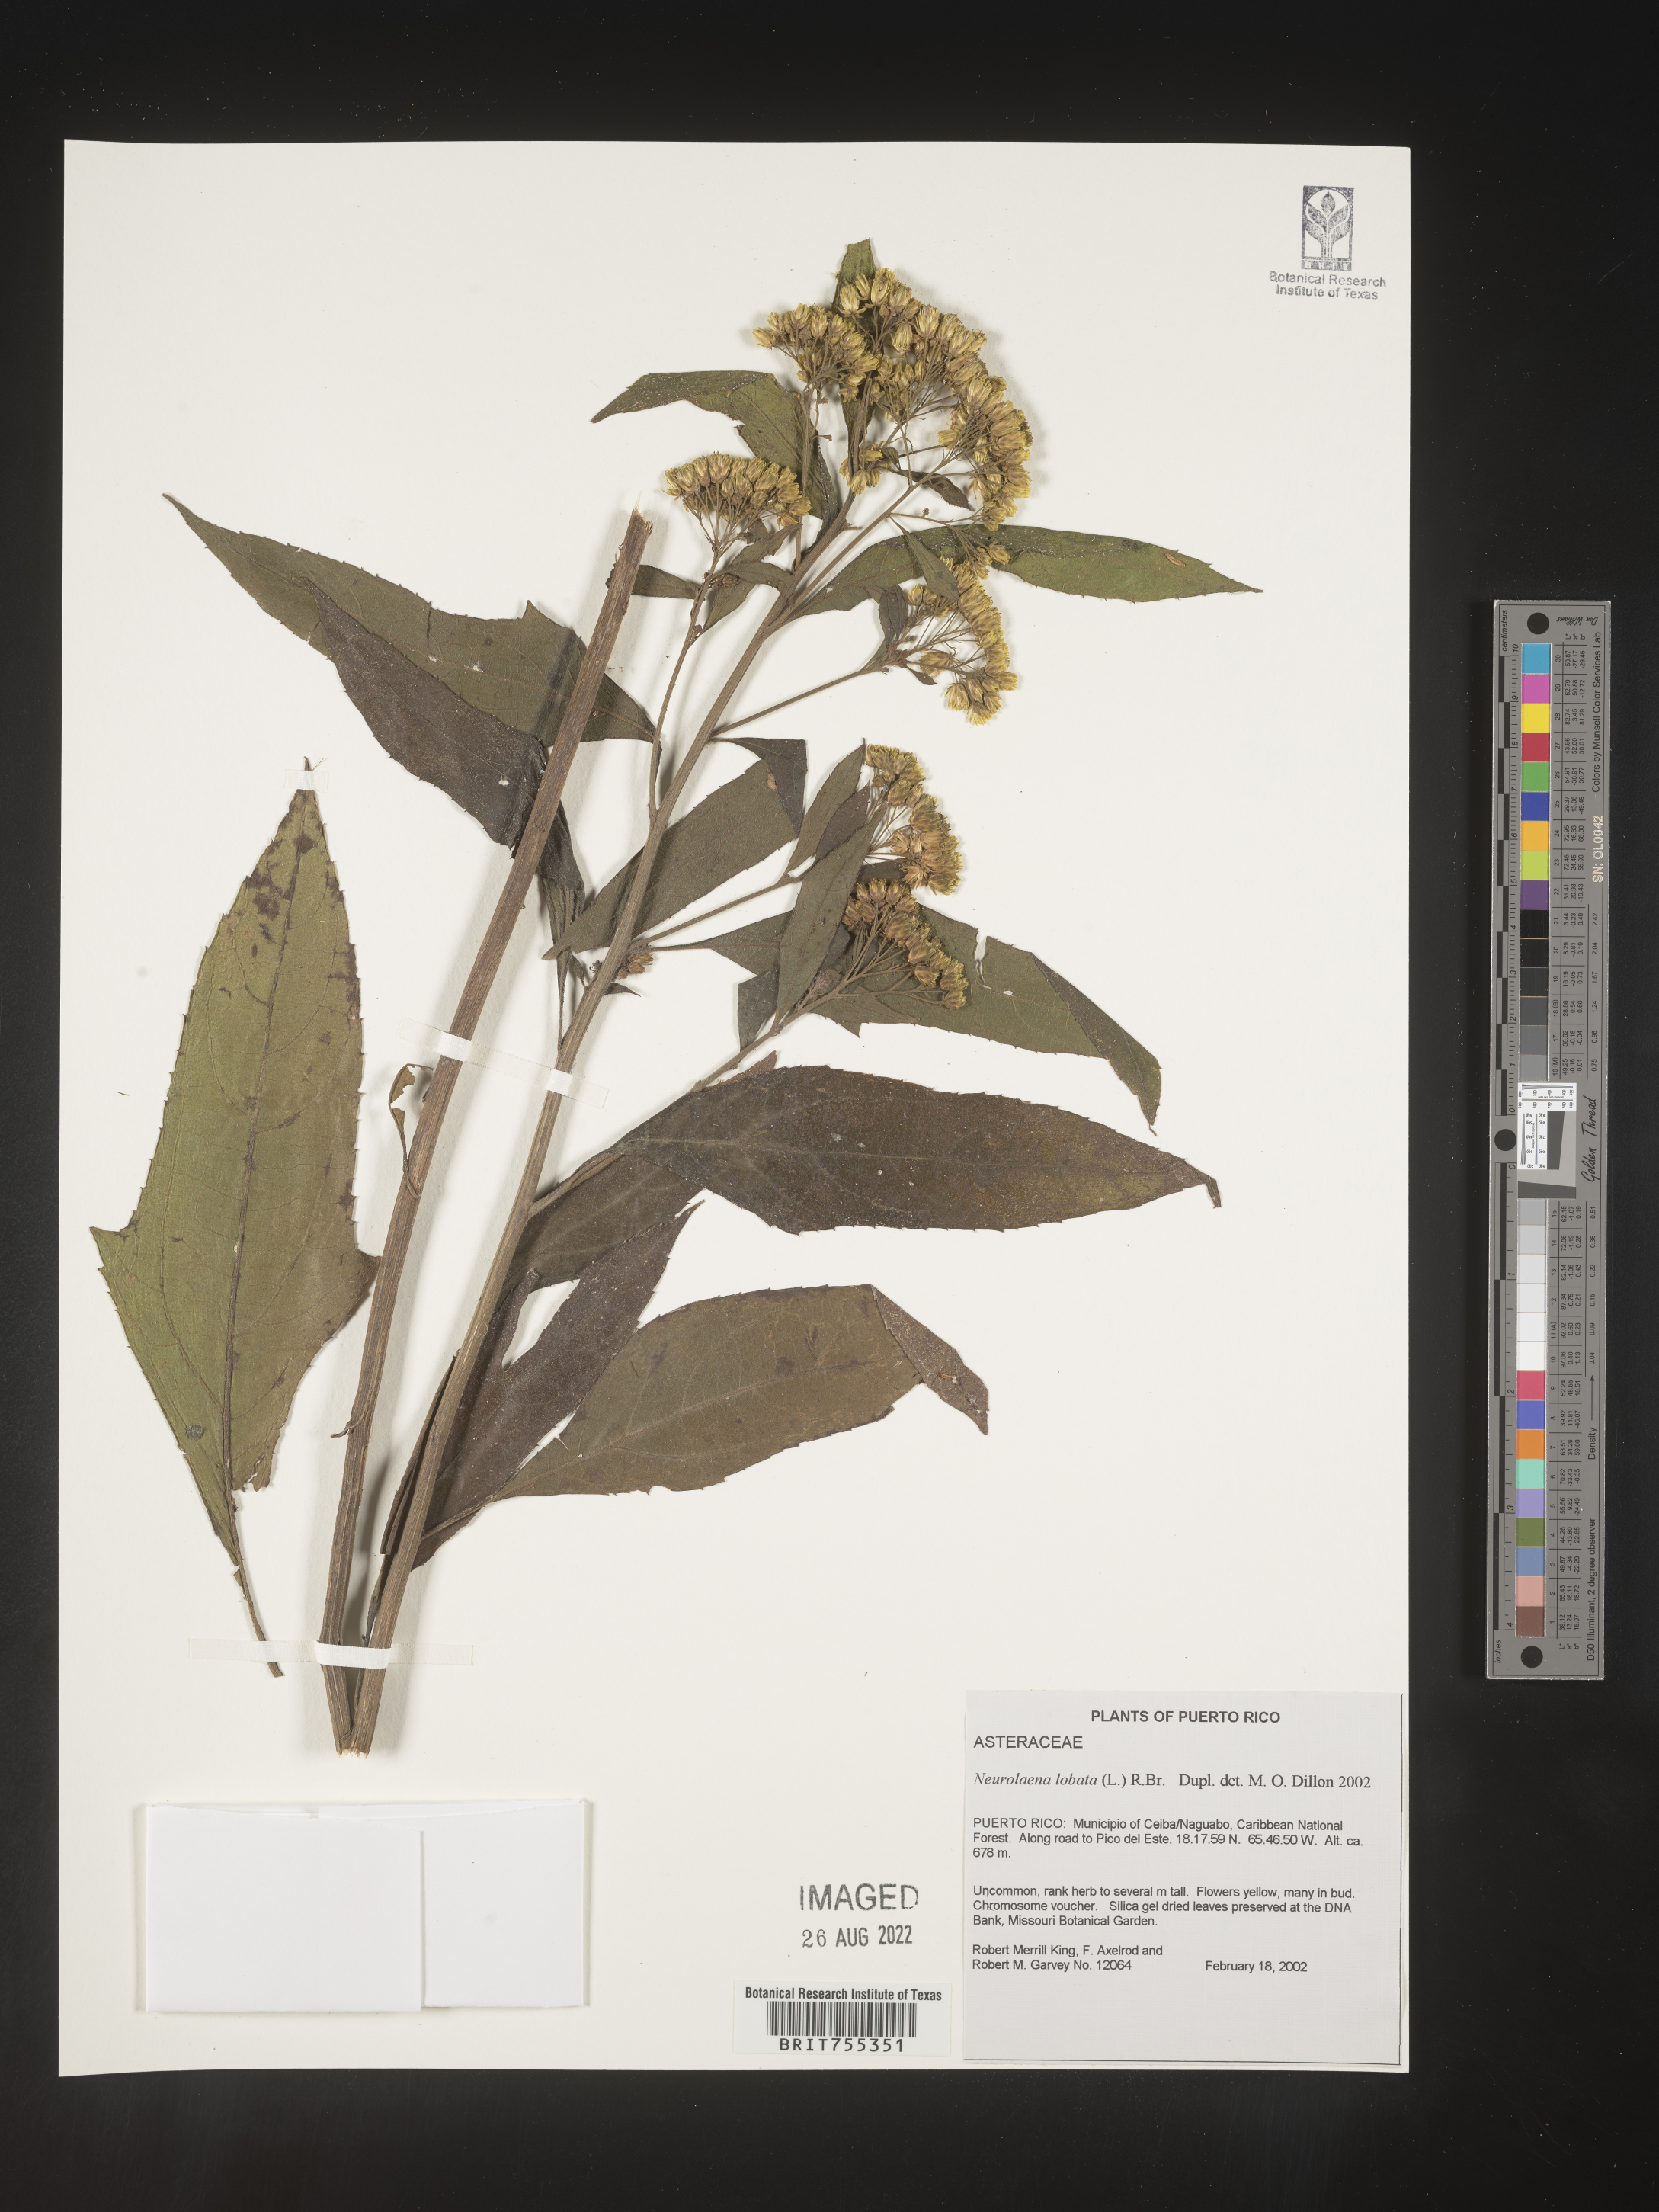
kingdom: Plantae
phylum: Tracheophyta
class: Magnoliopsida
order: Asterales
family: Asteraceae
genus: Neurolaena
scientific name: Neurolaena
